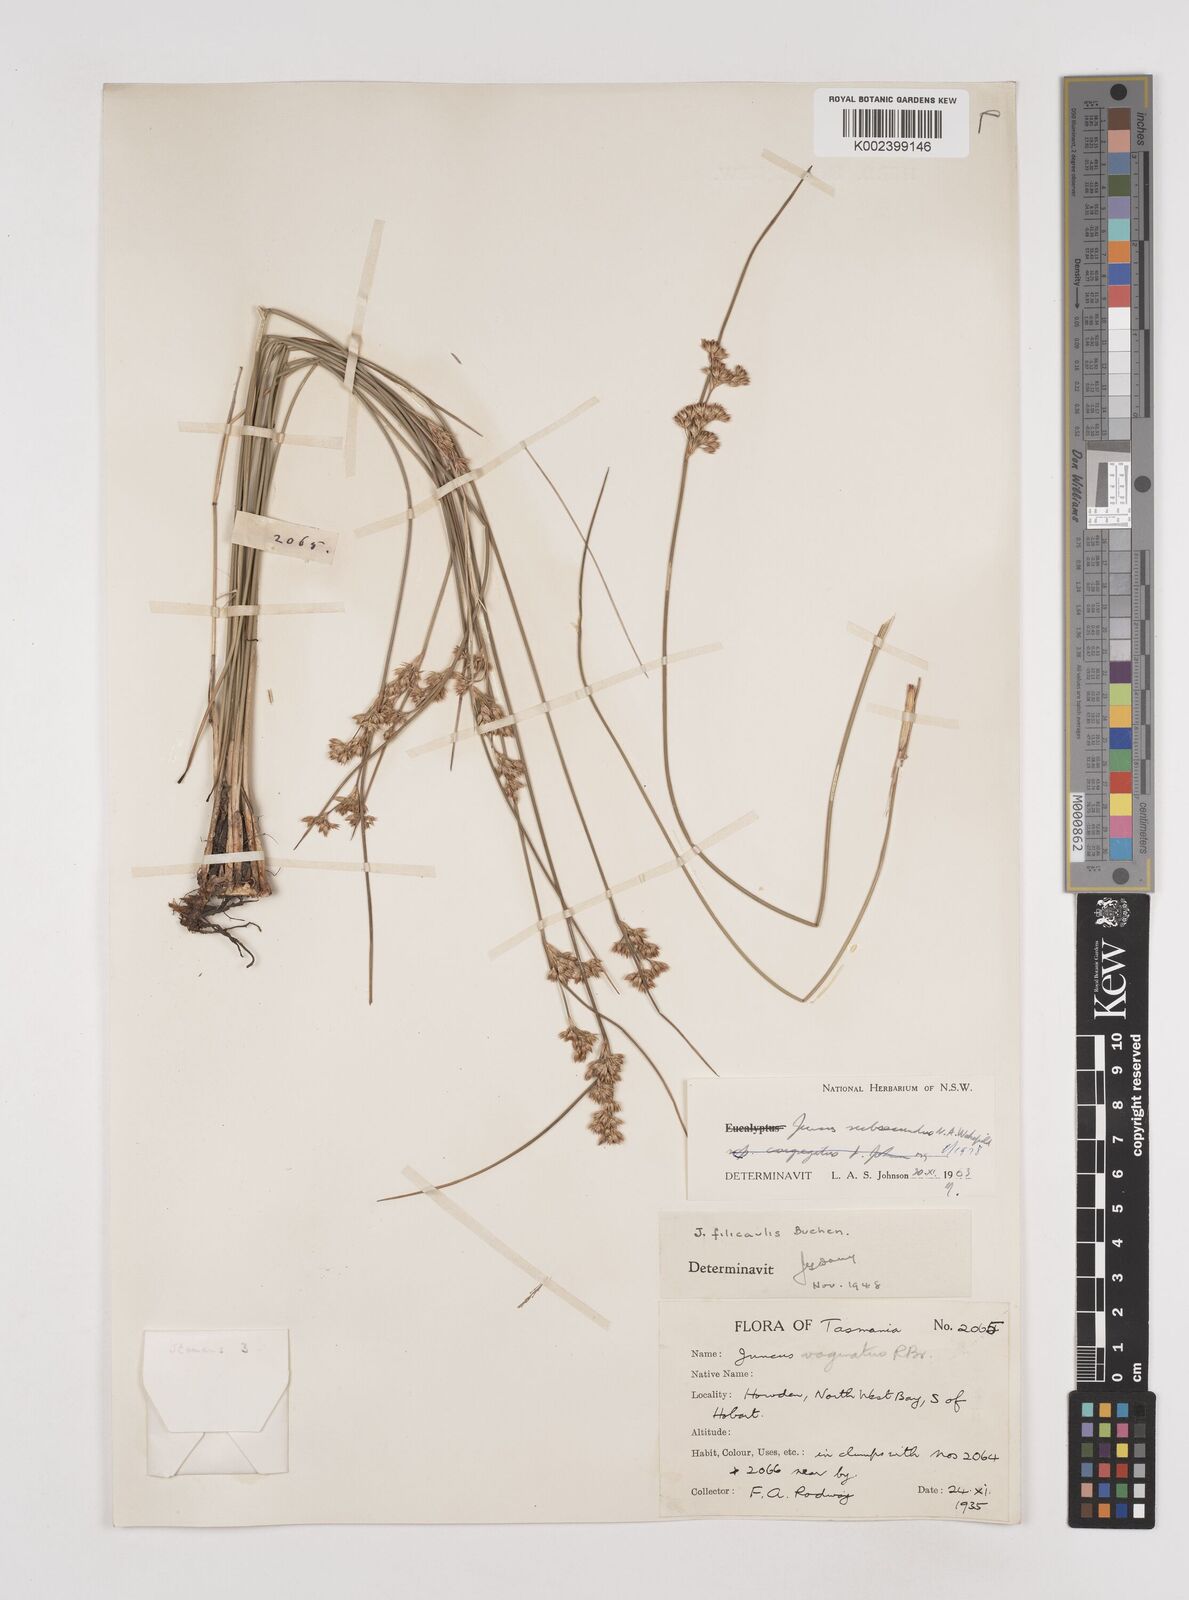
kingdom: Plantae
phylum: Tracheophyta
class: Liliopsida
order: Poales
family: Juncaceae
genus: Juncus
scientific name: Juncus subsecundus
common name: Fingered rush
